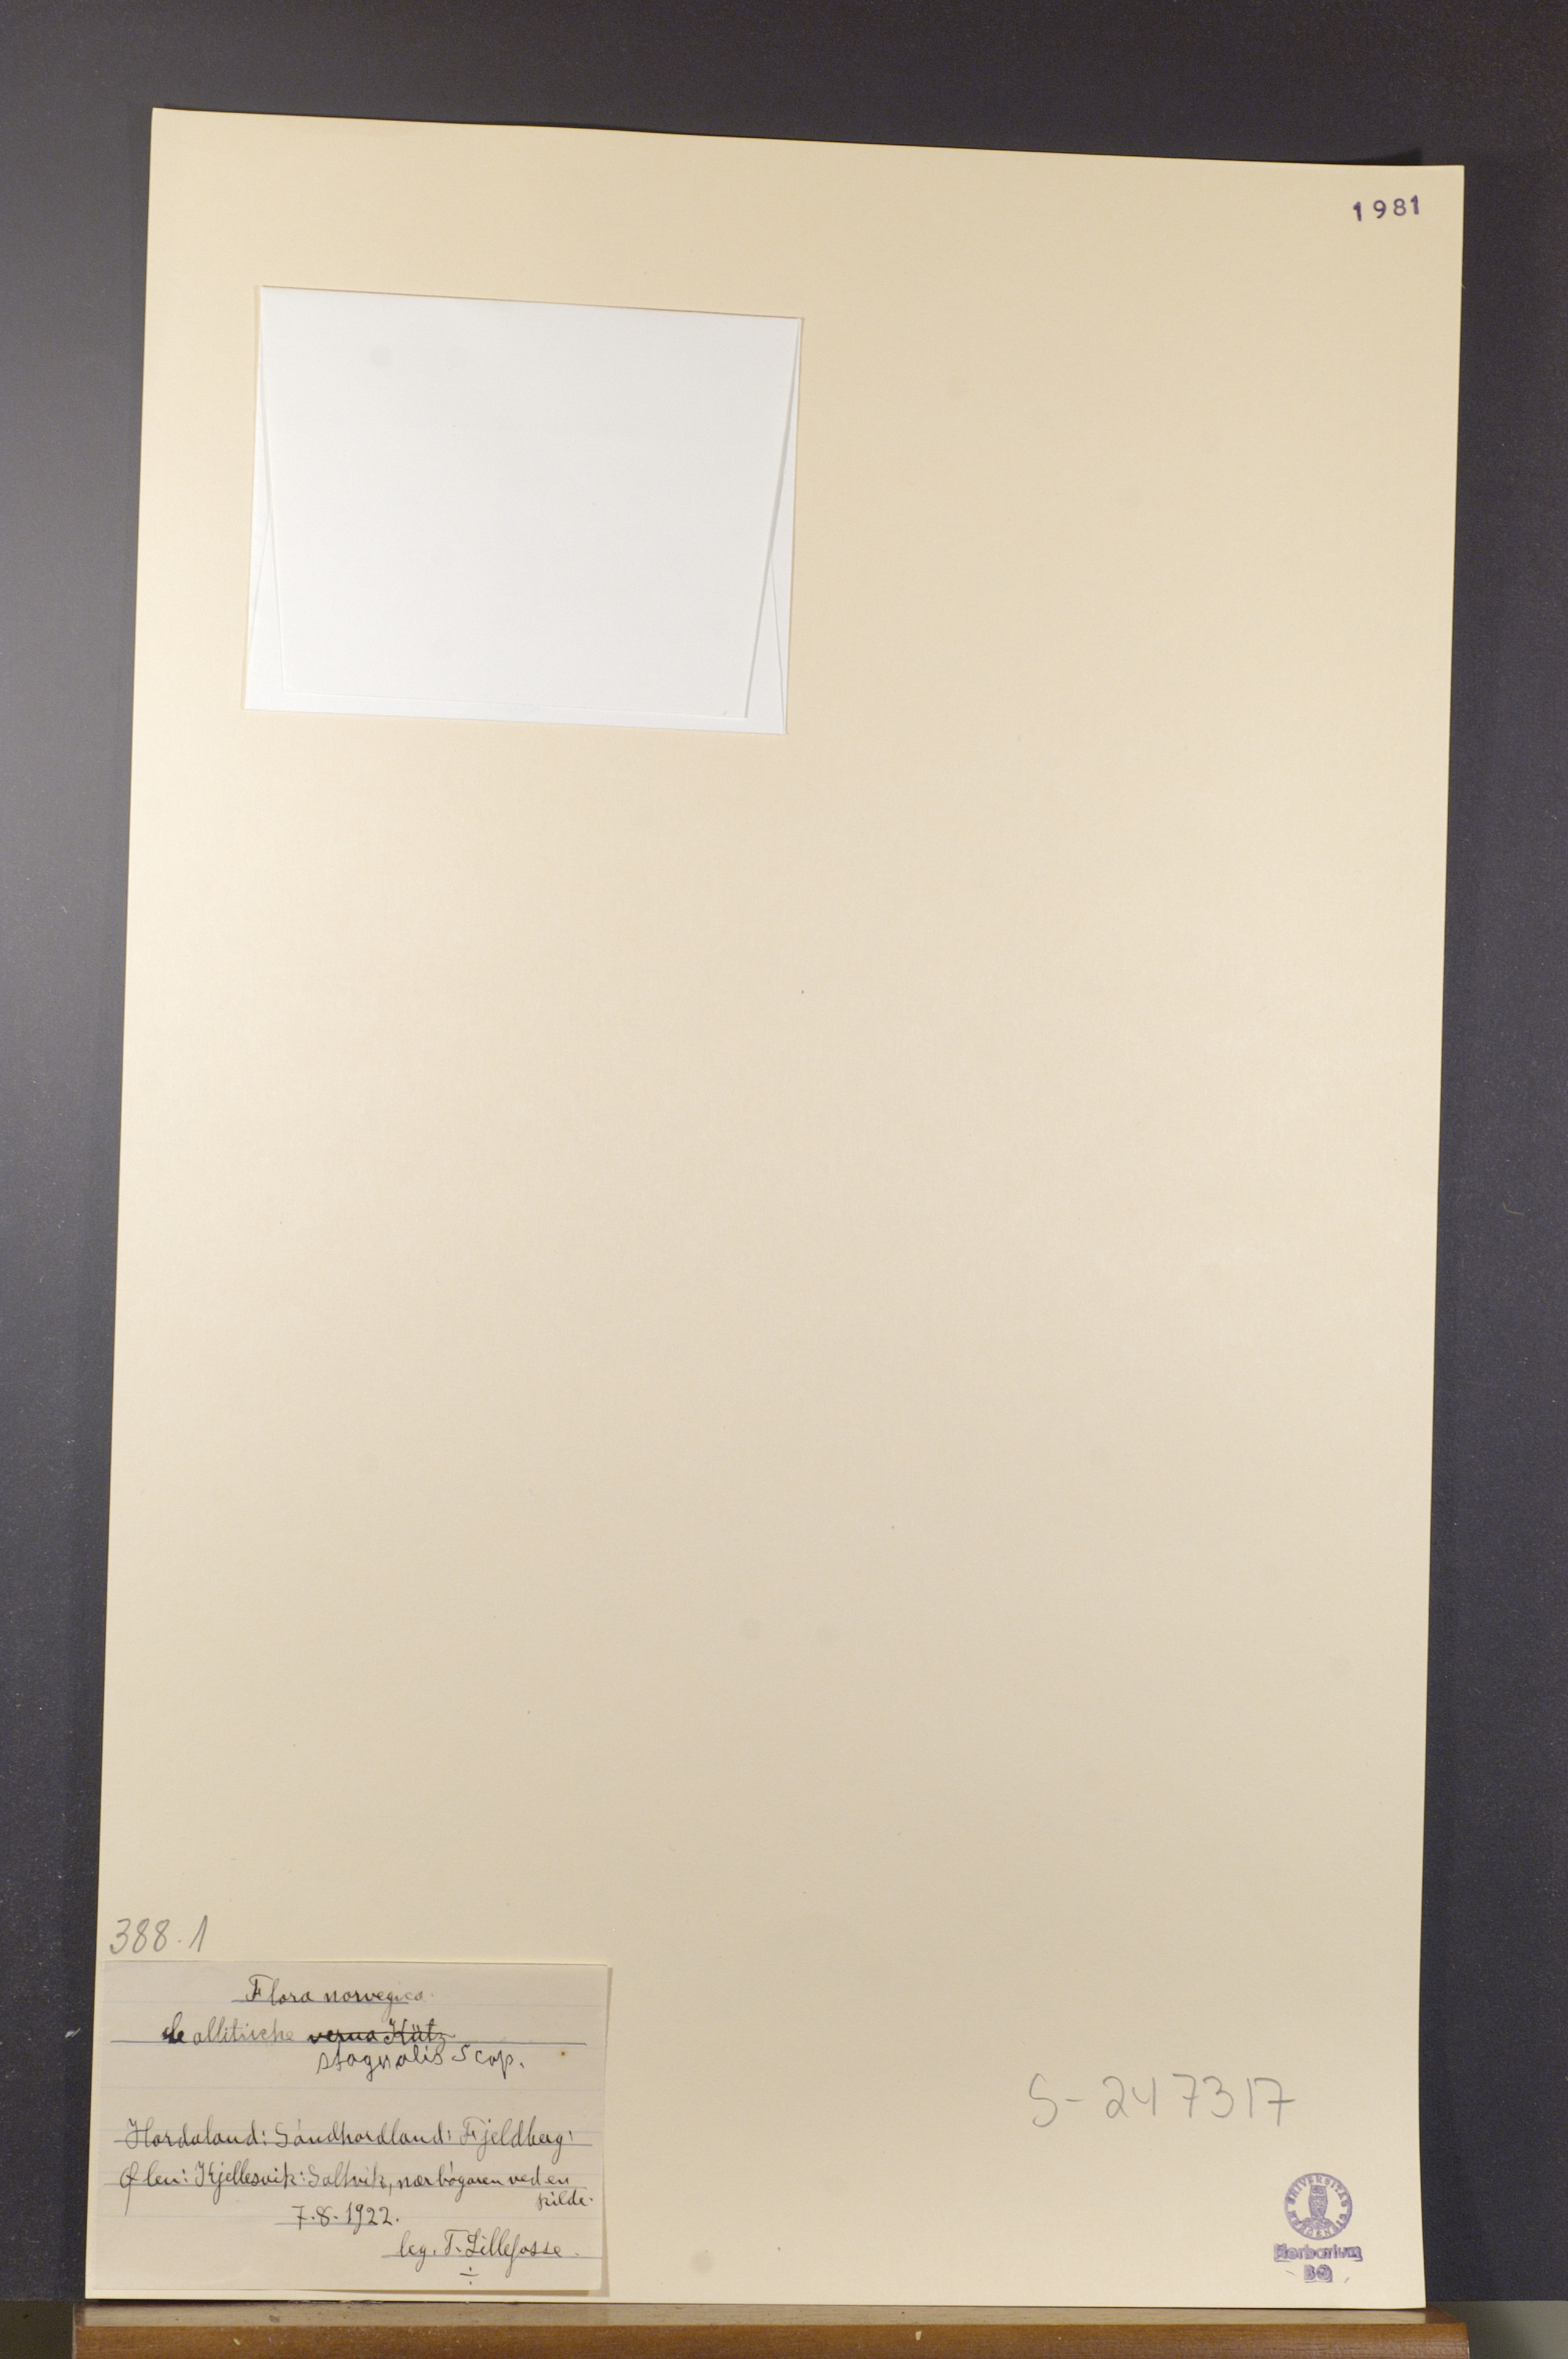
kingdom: Plantae
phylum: Tracheophyta
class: Magnoliopsida
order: Lamiales
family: Plantaginaceae
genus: Callitriche
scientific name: Callitriche stagnalis
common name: Common water-starwort
